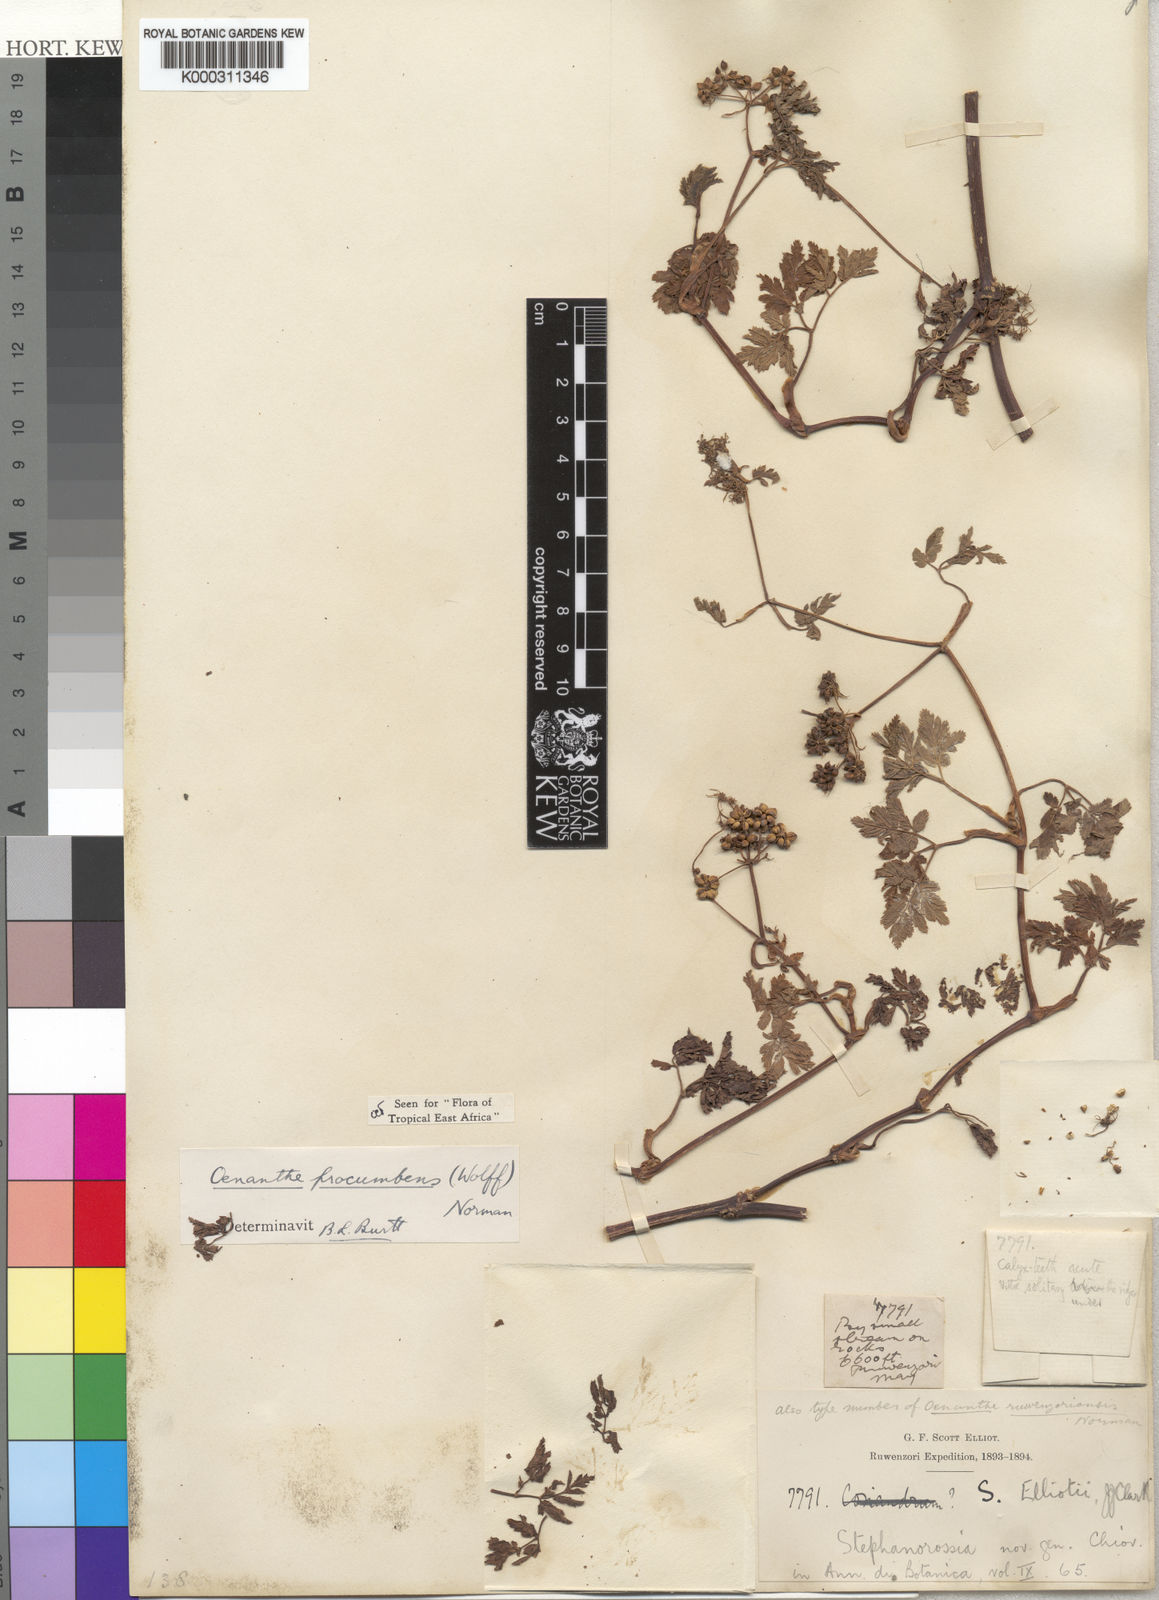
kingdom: Plantae
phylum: Tracheophyta
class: Magnoliopsida
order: Apiales
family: Apiaceae
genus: Oenanthe
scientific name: Oenanthe procumbens
